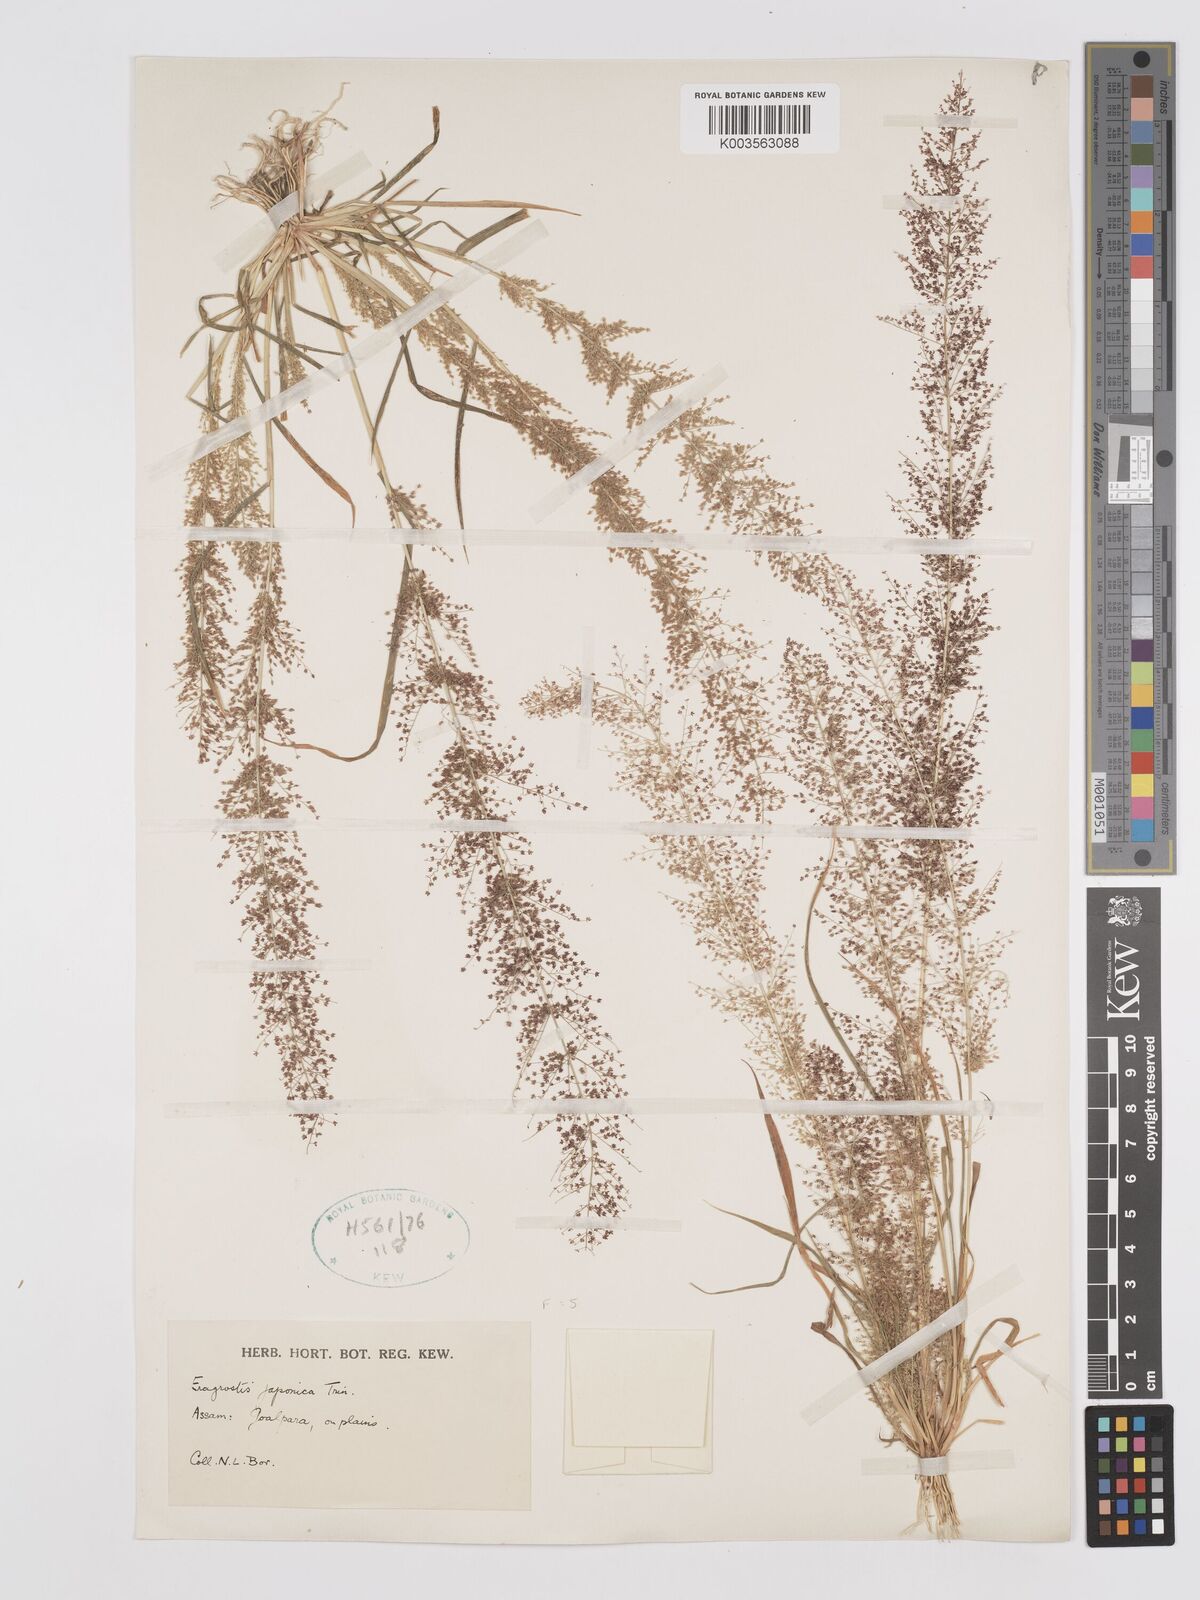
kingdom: Plantae
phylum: Tracheophyta
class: Liliopsida
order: Poales
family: Poaceae
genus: Eragrostis
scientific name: Eragrostis japonica
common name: Pond lovegrass
